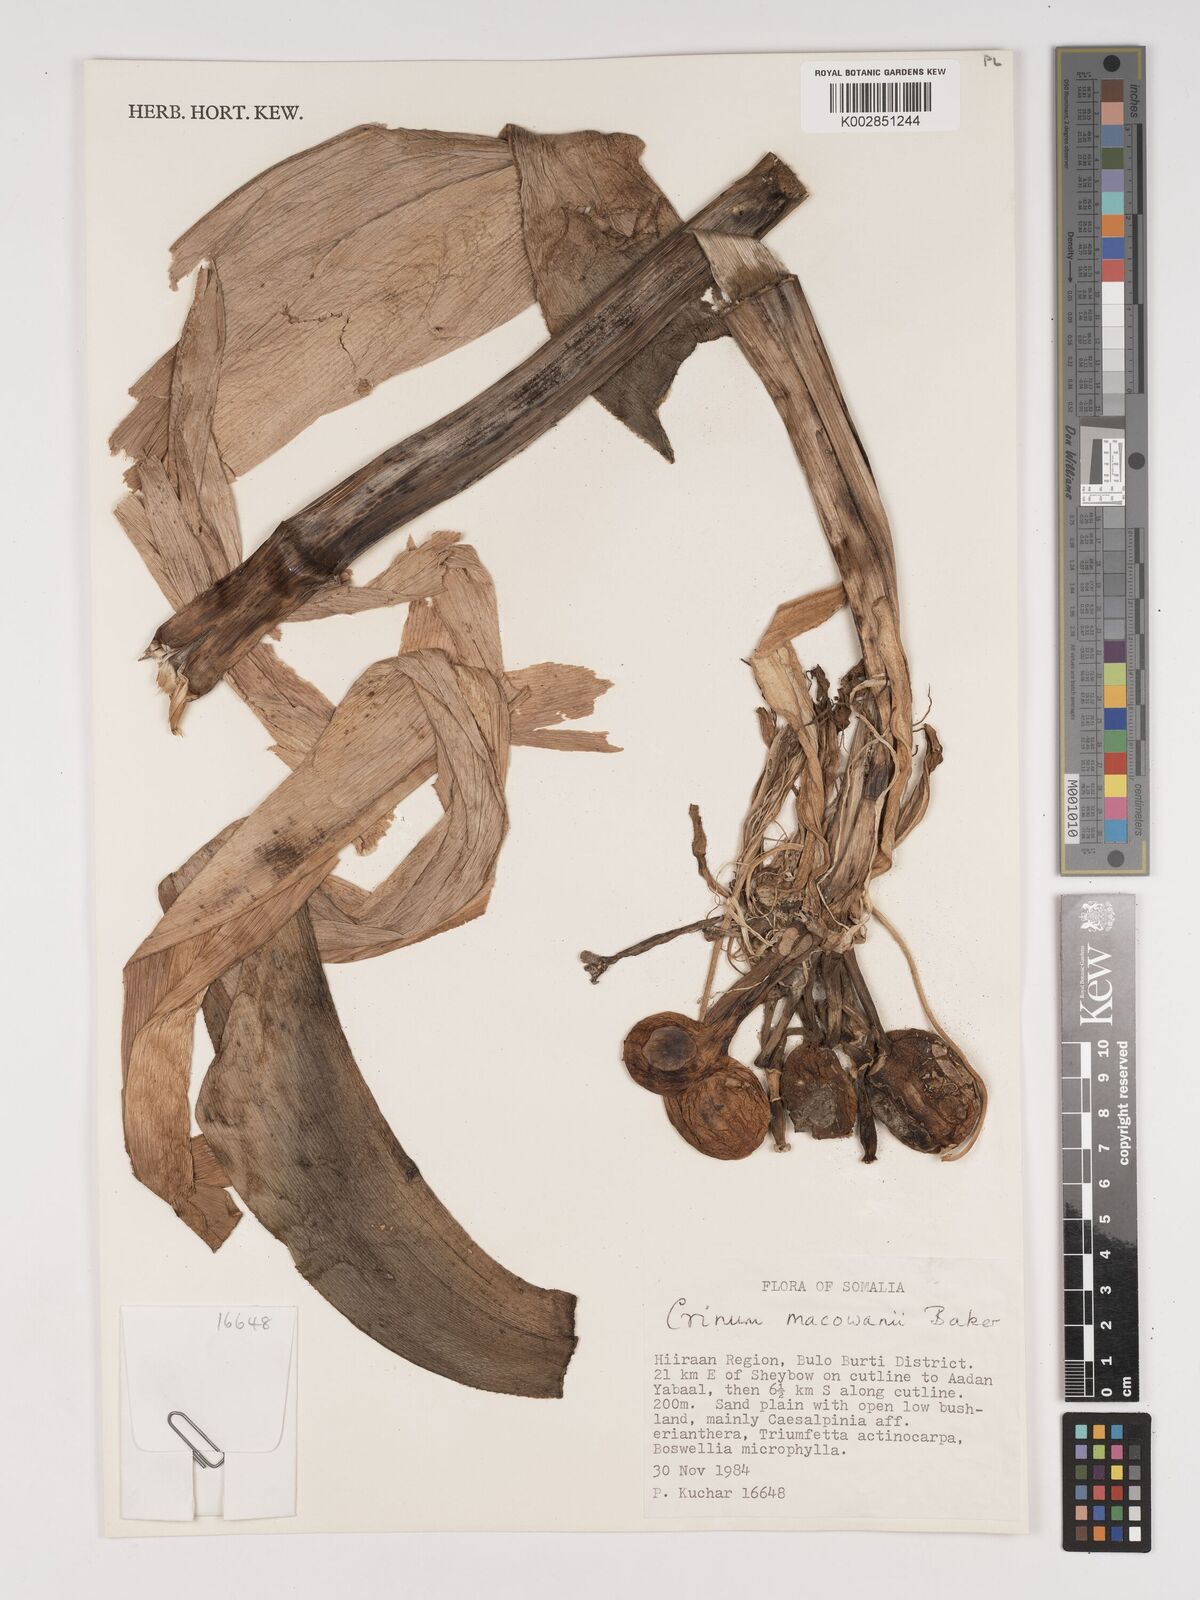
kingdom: Plantae
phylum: Tracheophyta
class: Liliopsida
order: Asparagales
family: Amaryllidaceae
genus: Crinum
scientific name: Crinum stuhlmannii
